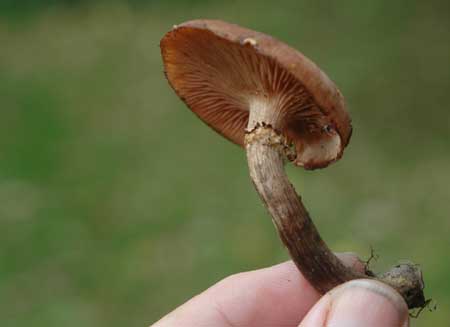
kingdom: Fungi
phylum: Basidiomycota
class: Agaricomycetes
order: Agaricales
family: Physalacriaceae
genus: Armillaria
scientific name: Armillaria ostoyae
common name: mørk honningsvamp
